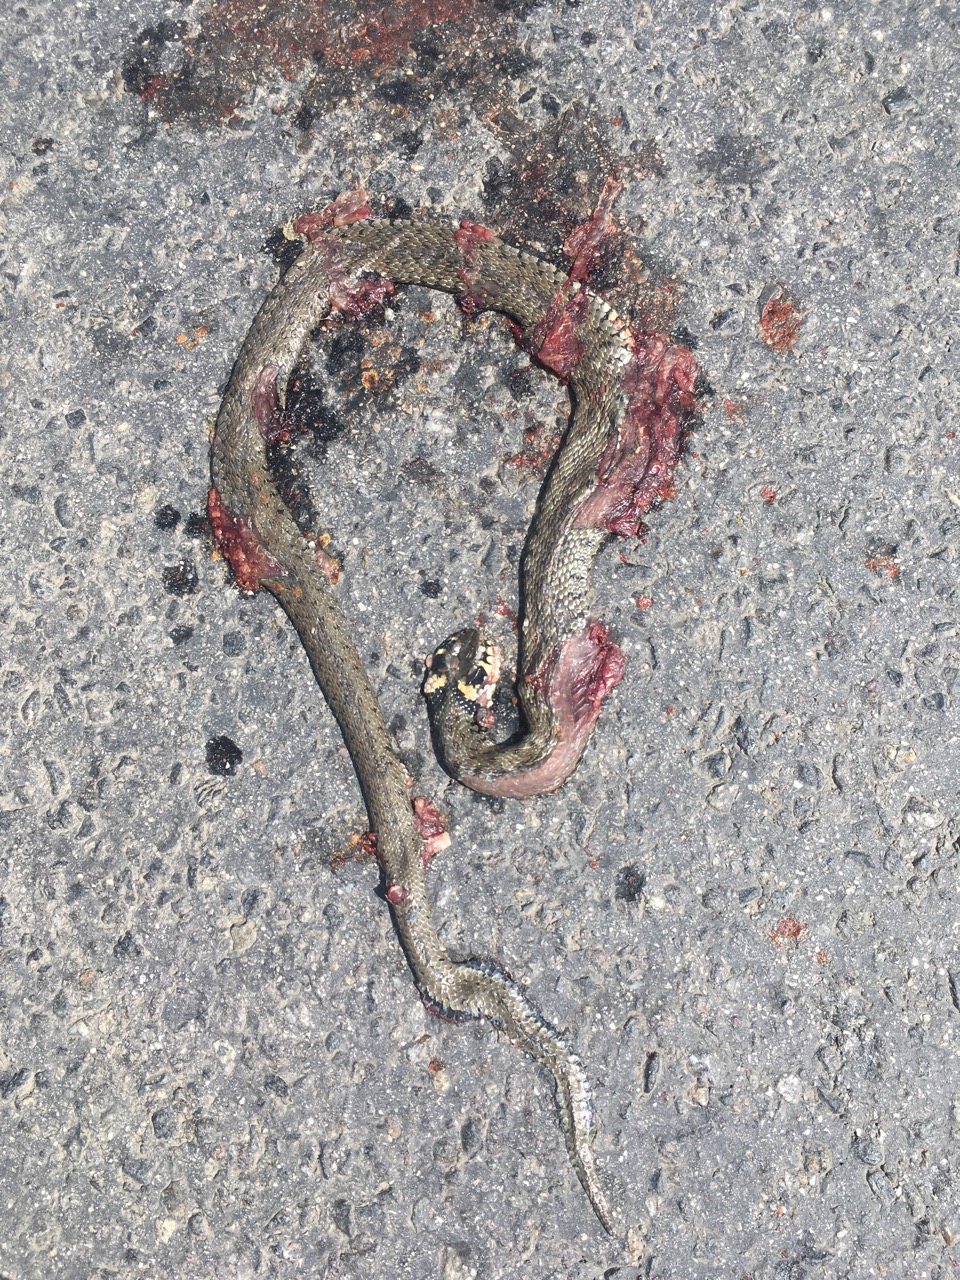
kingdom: Animalia
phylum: Chordata
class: Squamata
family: Colubridae
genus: Natrix
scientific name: Natrix natrix
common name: Grass snake
